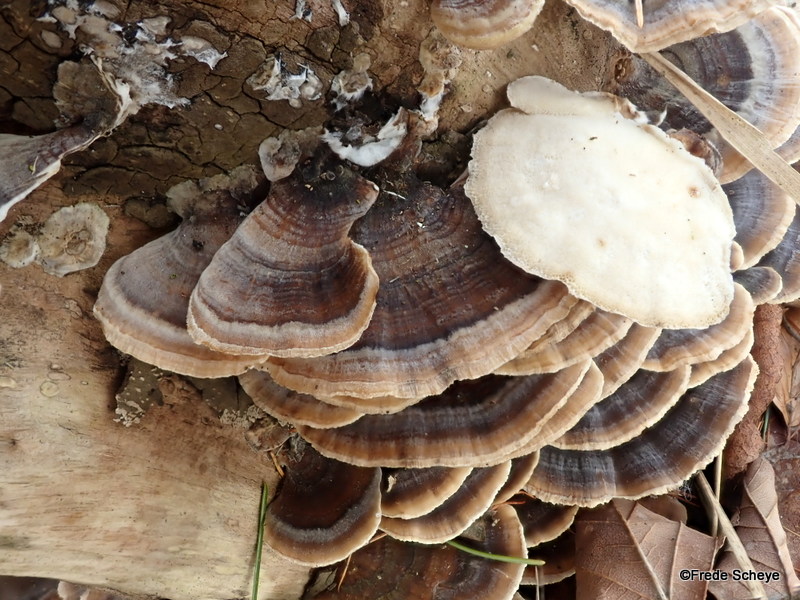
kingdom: Fungi
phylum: Basidiomycota
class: Agaricomycetes
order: Polyporales
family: Polyporaceae
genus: Trametes
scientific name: Trametes versicolor
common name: broget læderporesvamp
